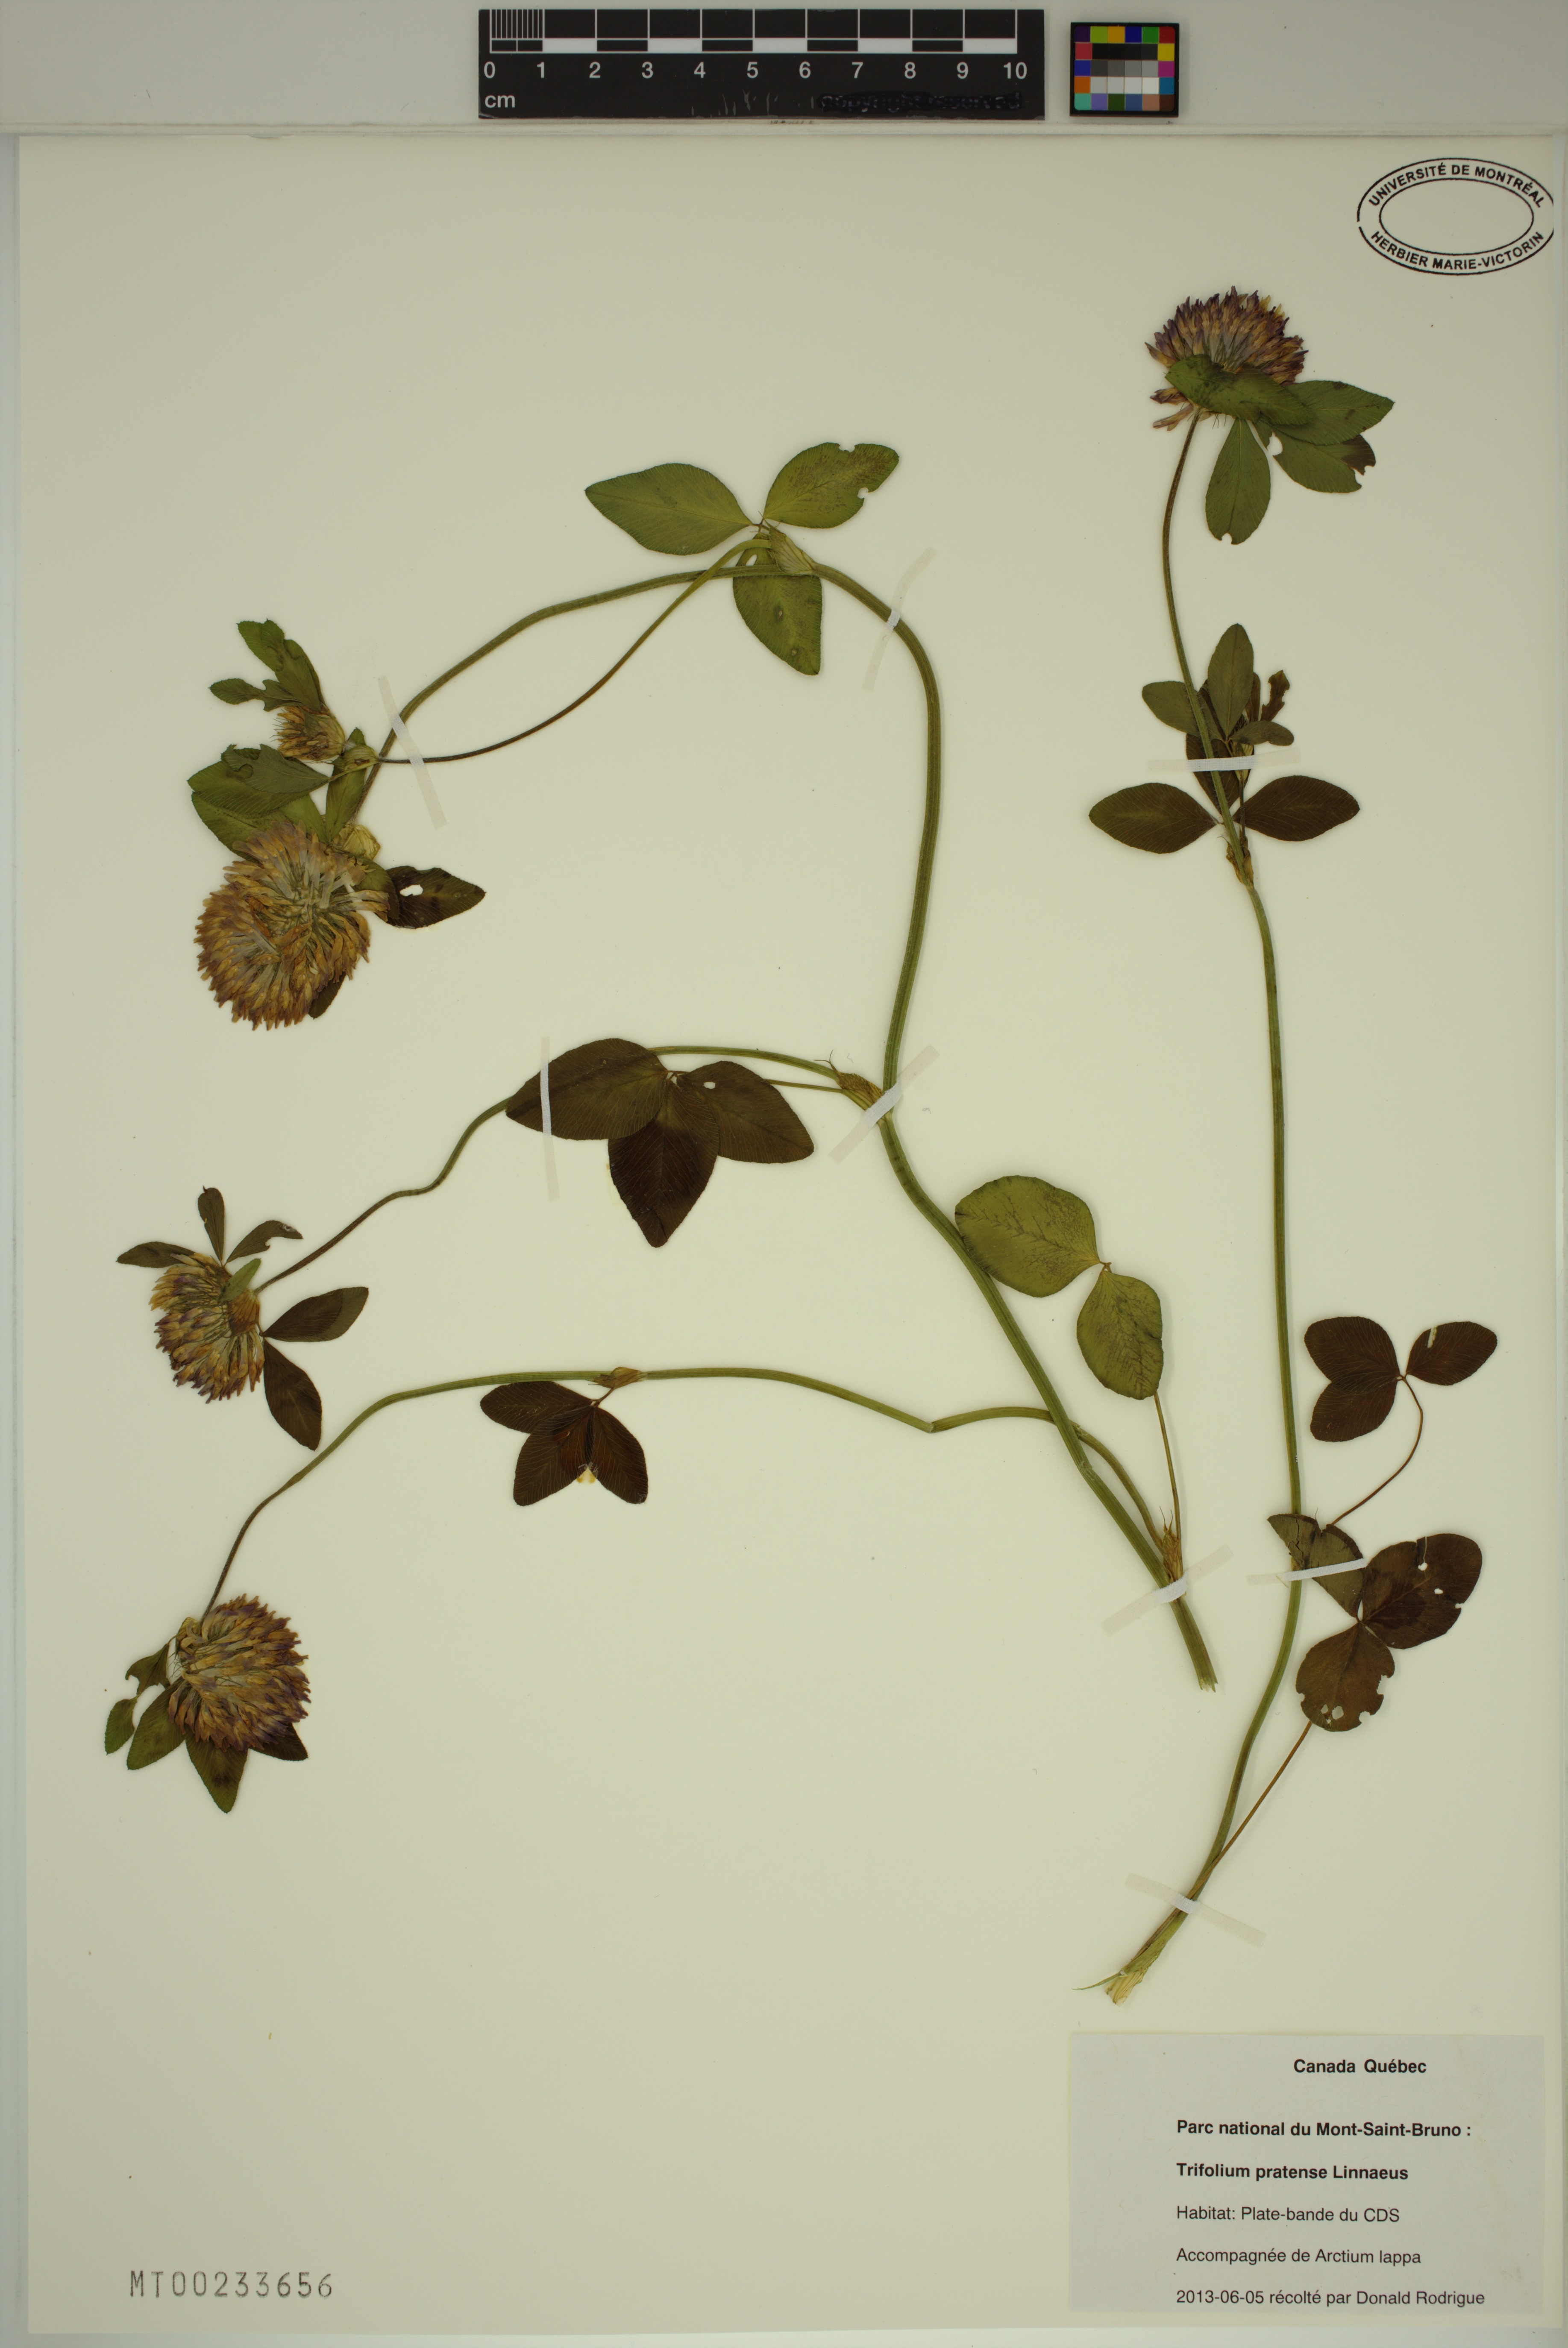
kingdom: Plantae
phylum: Tracheophyta
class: Magnoliopsida
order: Fabales
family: Fabaceae
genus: Trifolium
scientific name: Trifolium pratense
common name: Red clover
